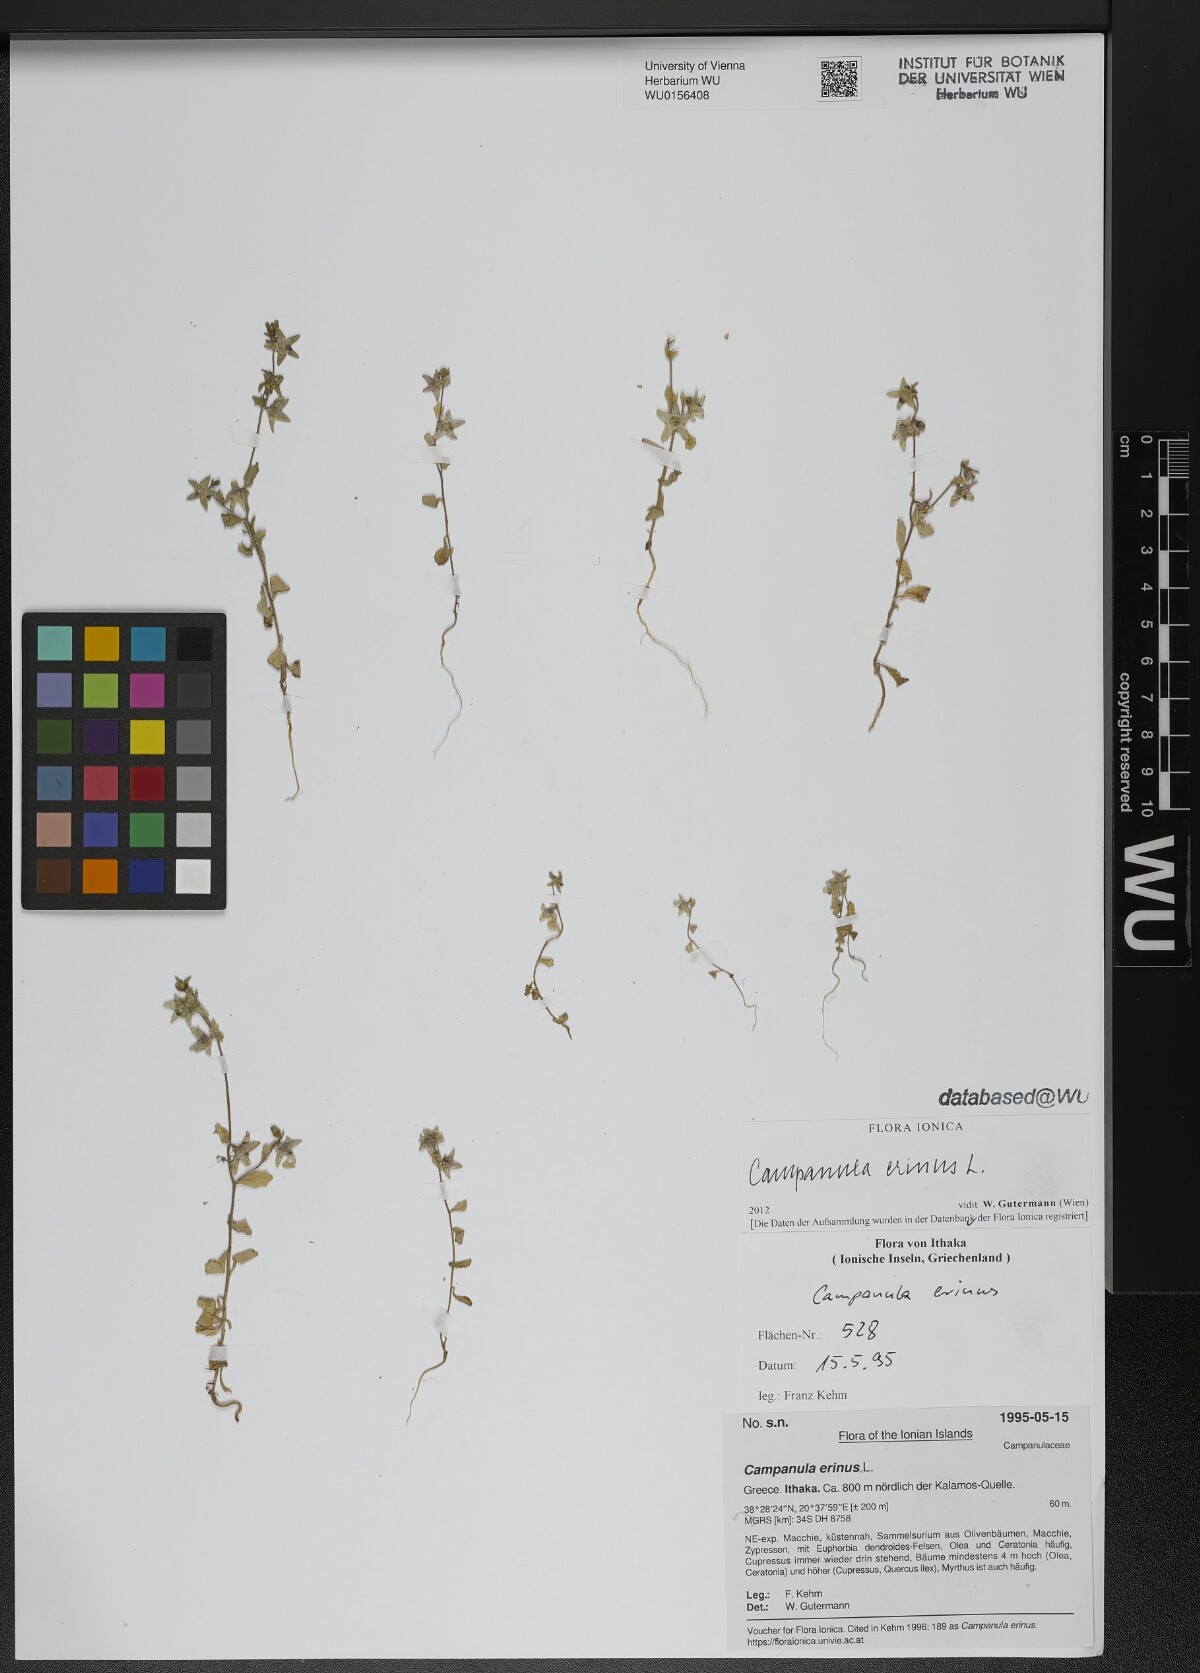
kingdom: Plantae
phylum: Tracheophyta
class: Magnoliopsida
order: Asterales
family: Campanulaceae
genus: Campanula
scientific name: Campanula erinus
